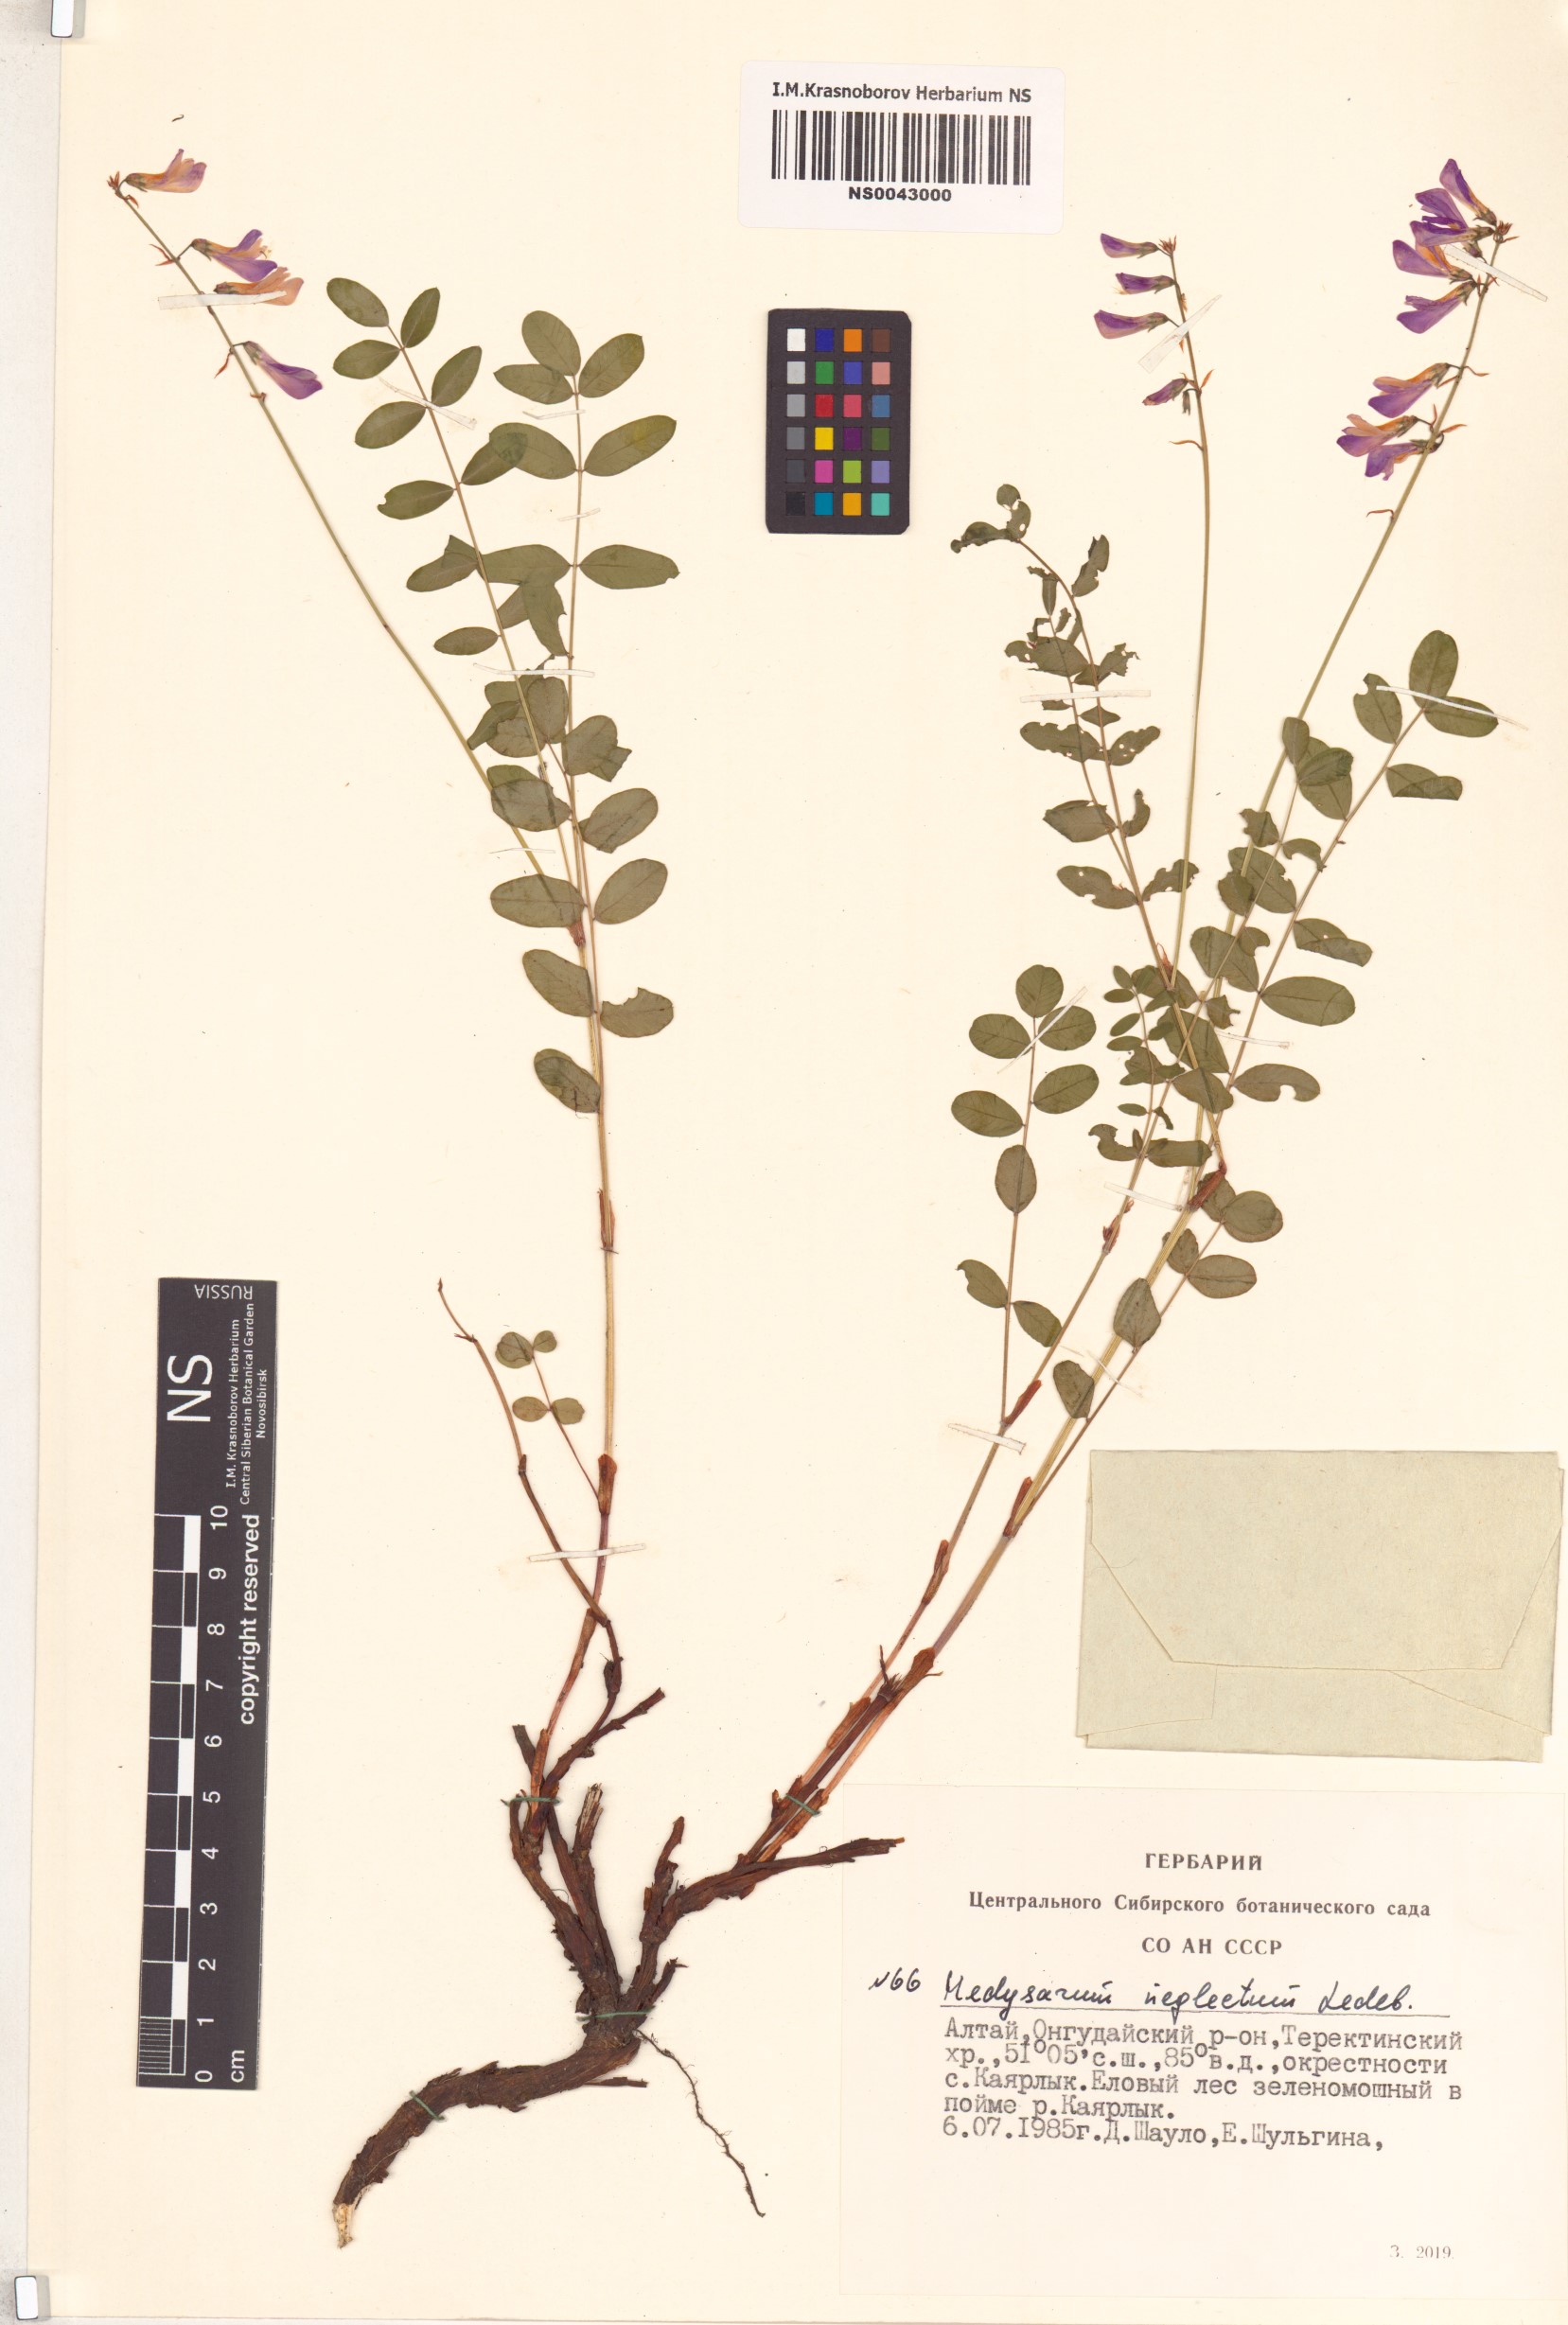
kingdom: Plantae
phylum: Tracheophyta
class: Magnoliopsida
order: Fabales
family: Fabaceae
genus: Hedysarum
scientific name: Hedysarum neglectum
